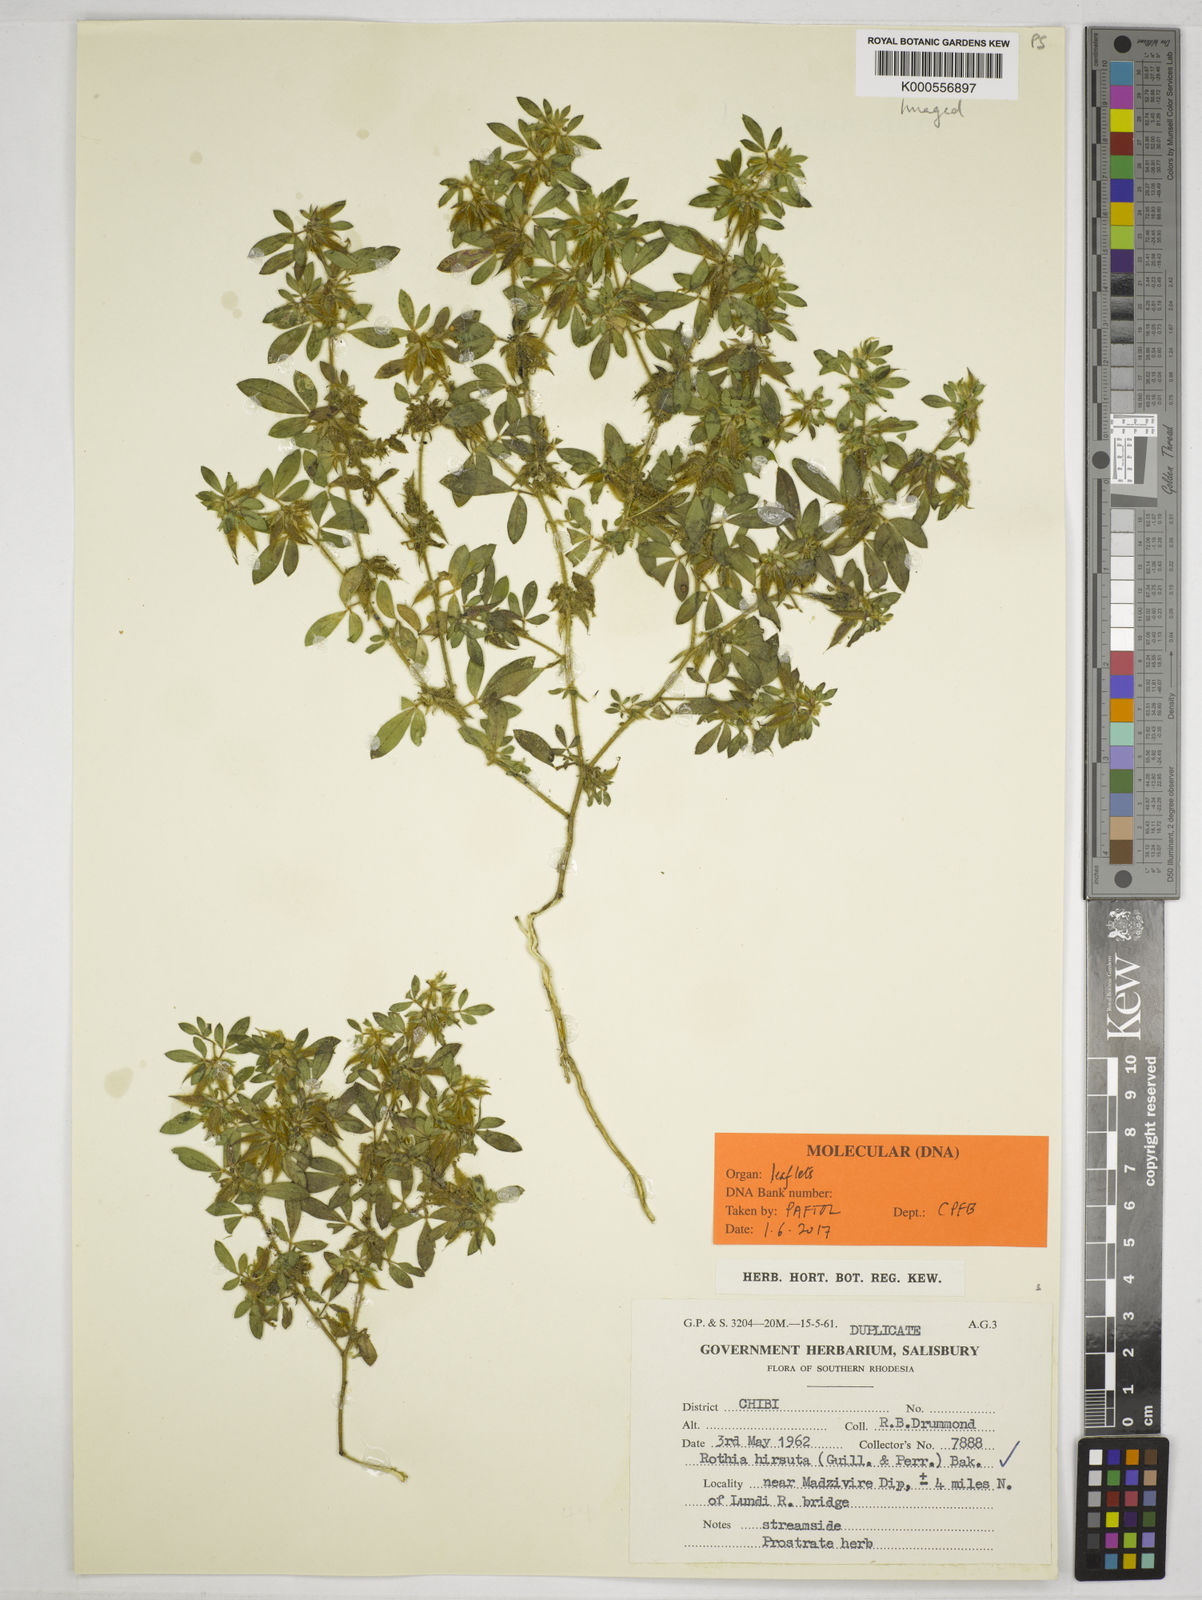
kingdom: Plantae
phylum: Tracheophyta
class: Magnoliopsida
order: Fabales
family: Fabaceae
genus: Rothia
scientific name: Rothia hirsuta
